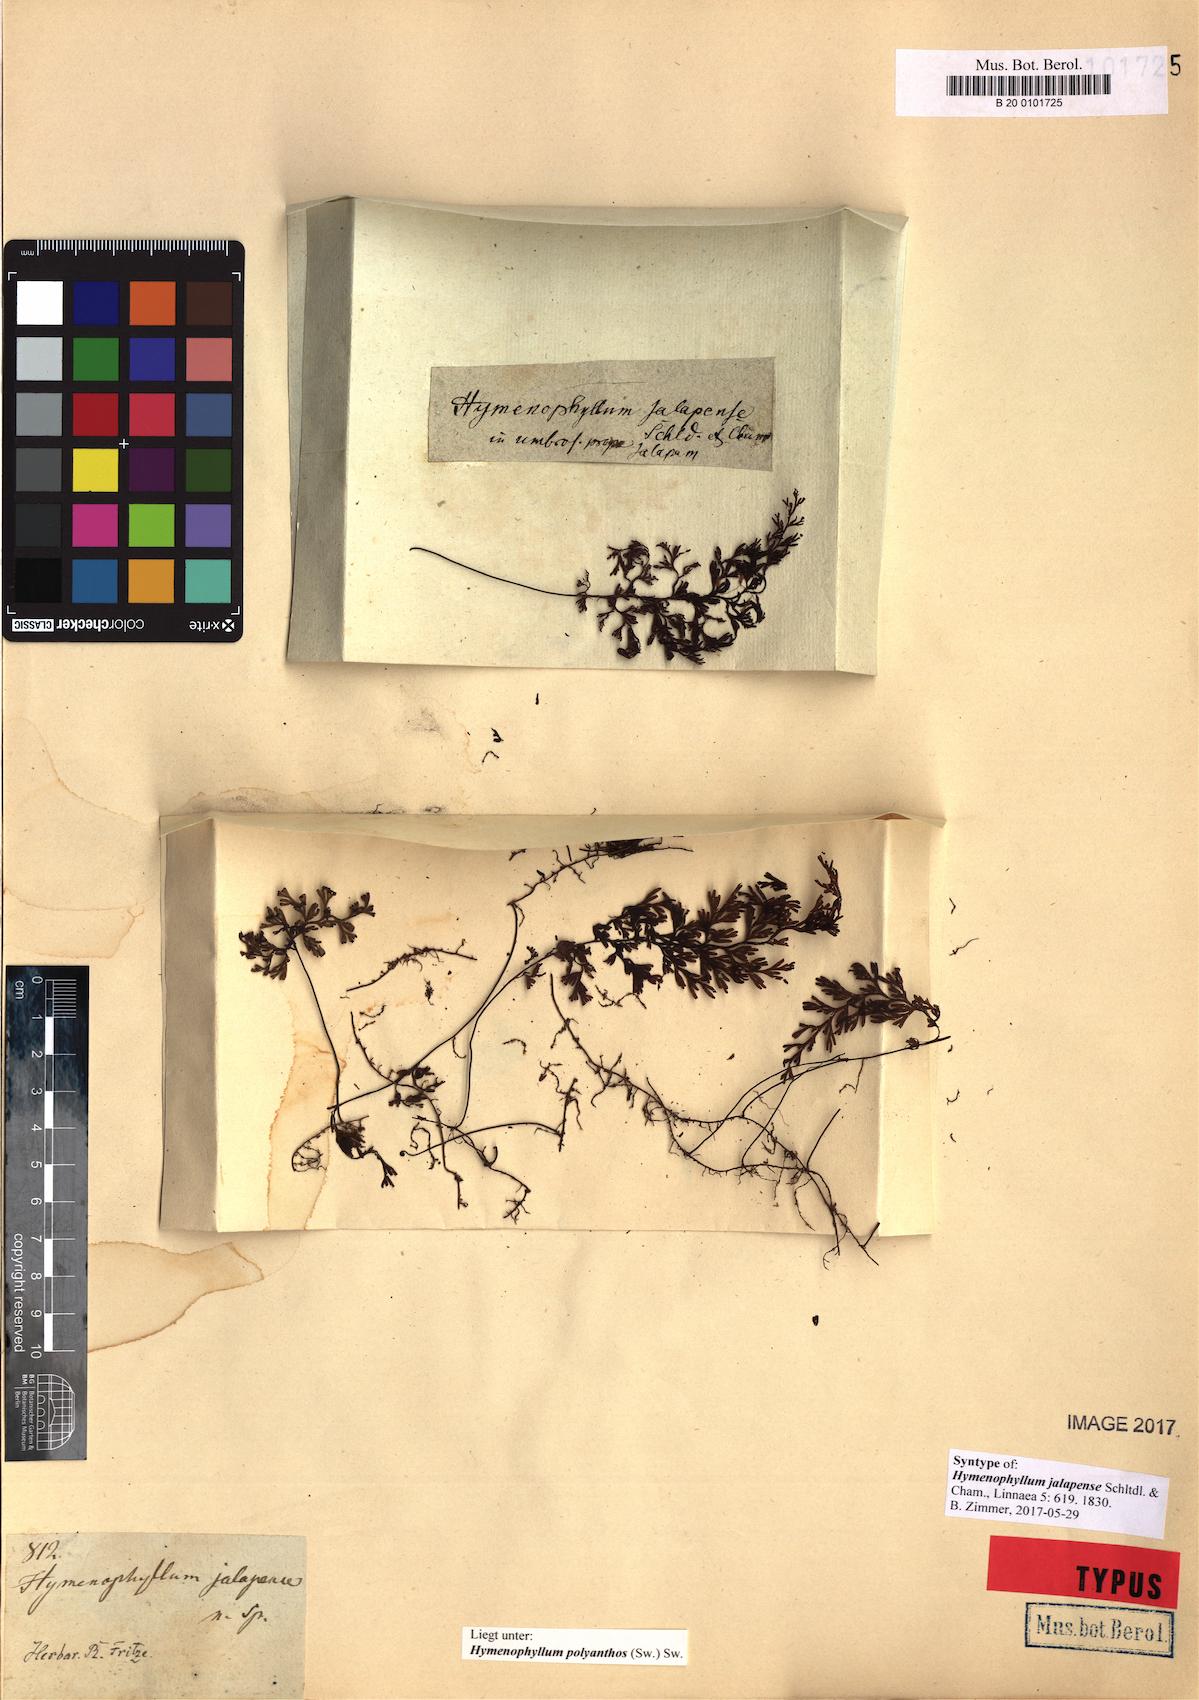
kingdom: Plantae
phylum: Tracheophyta
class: Polypodiopsida
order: Hymenophyllales
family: Hymenophyllaceae
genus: Hymenophyllum
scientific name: Hymenophyllum polyanthos
